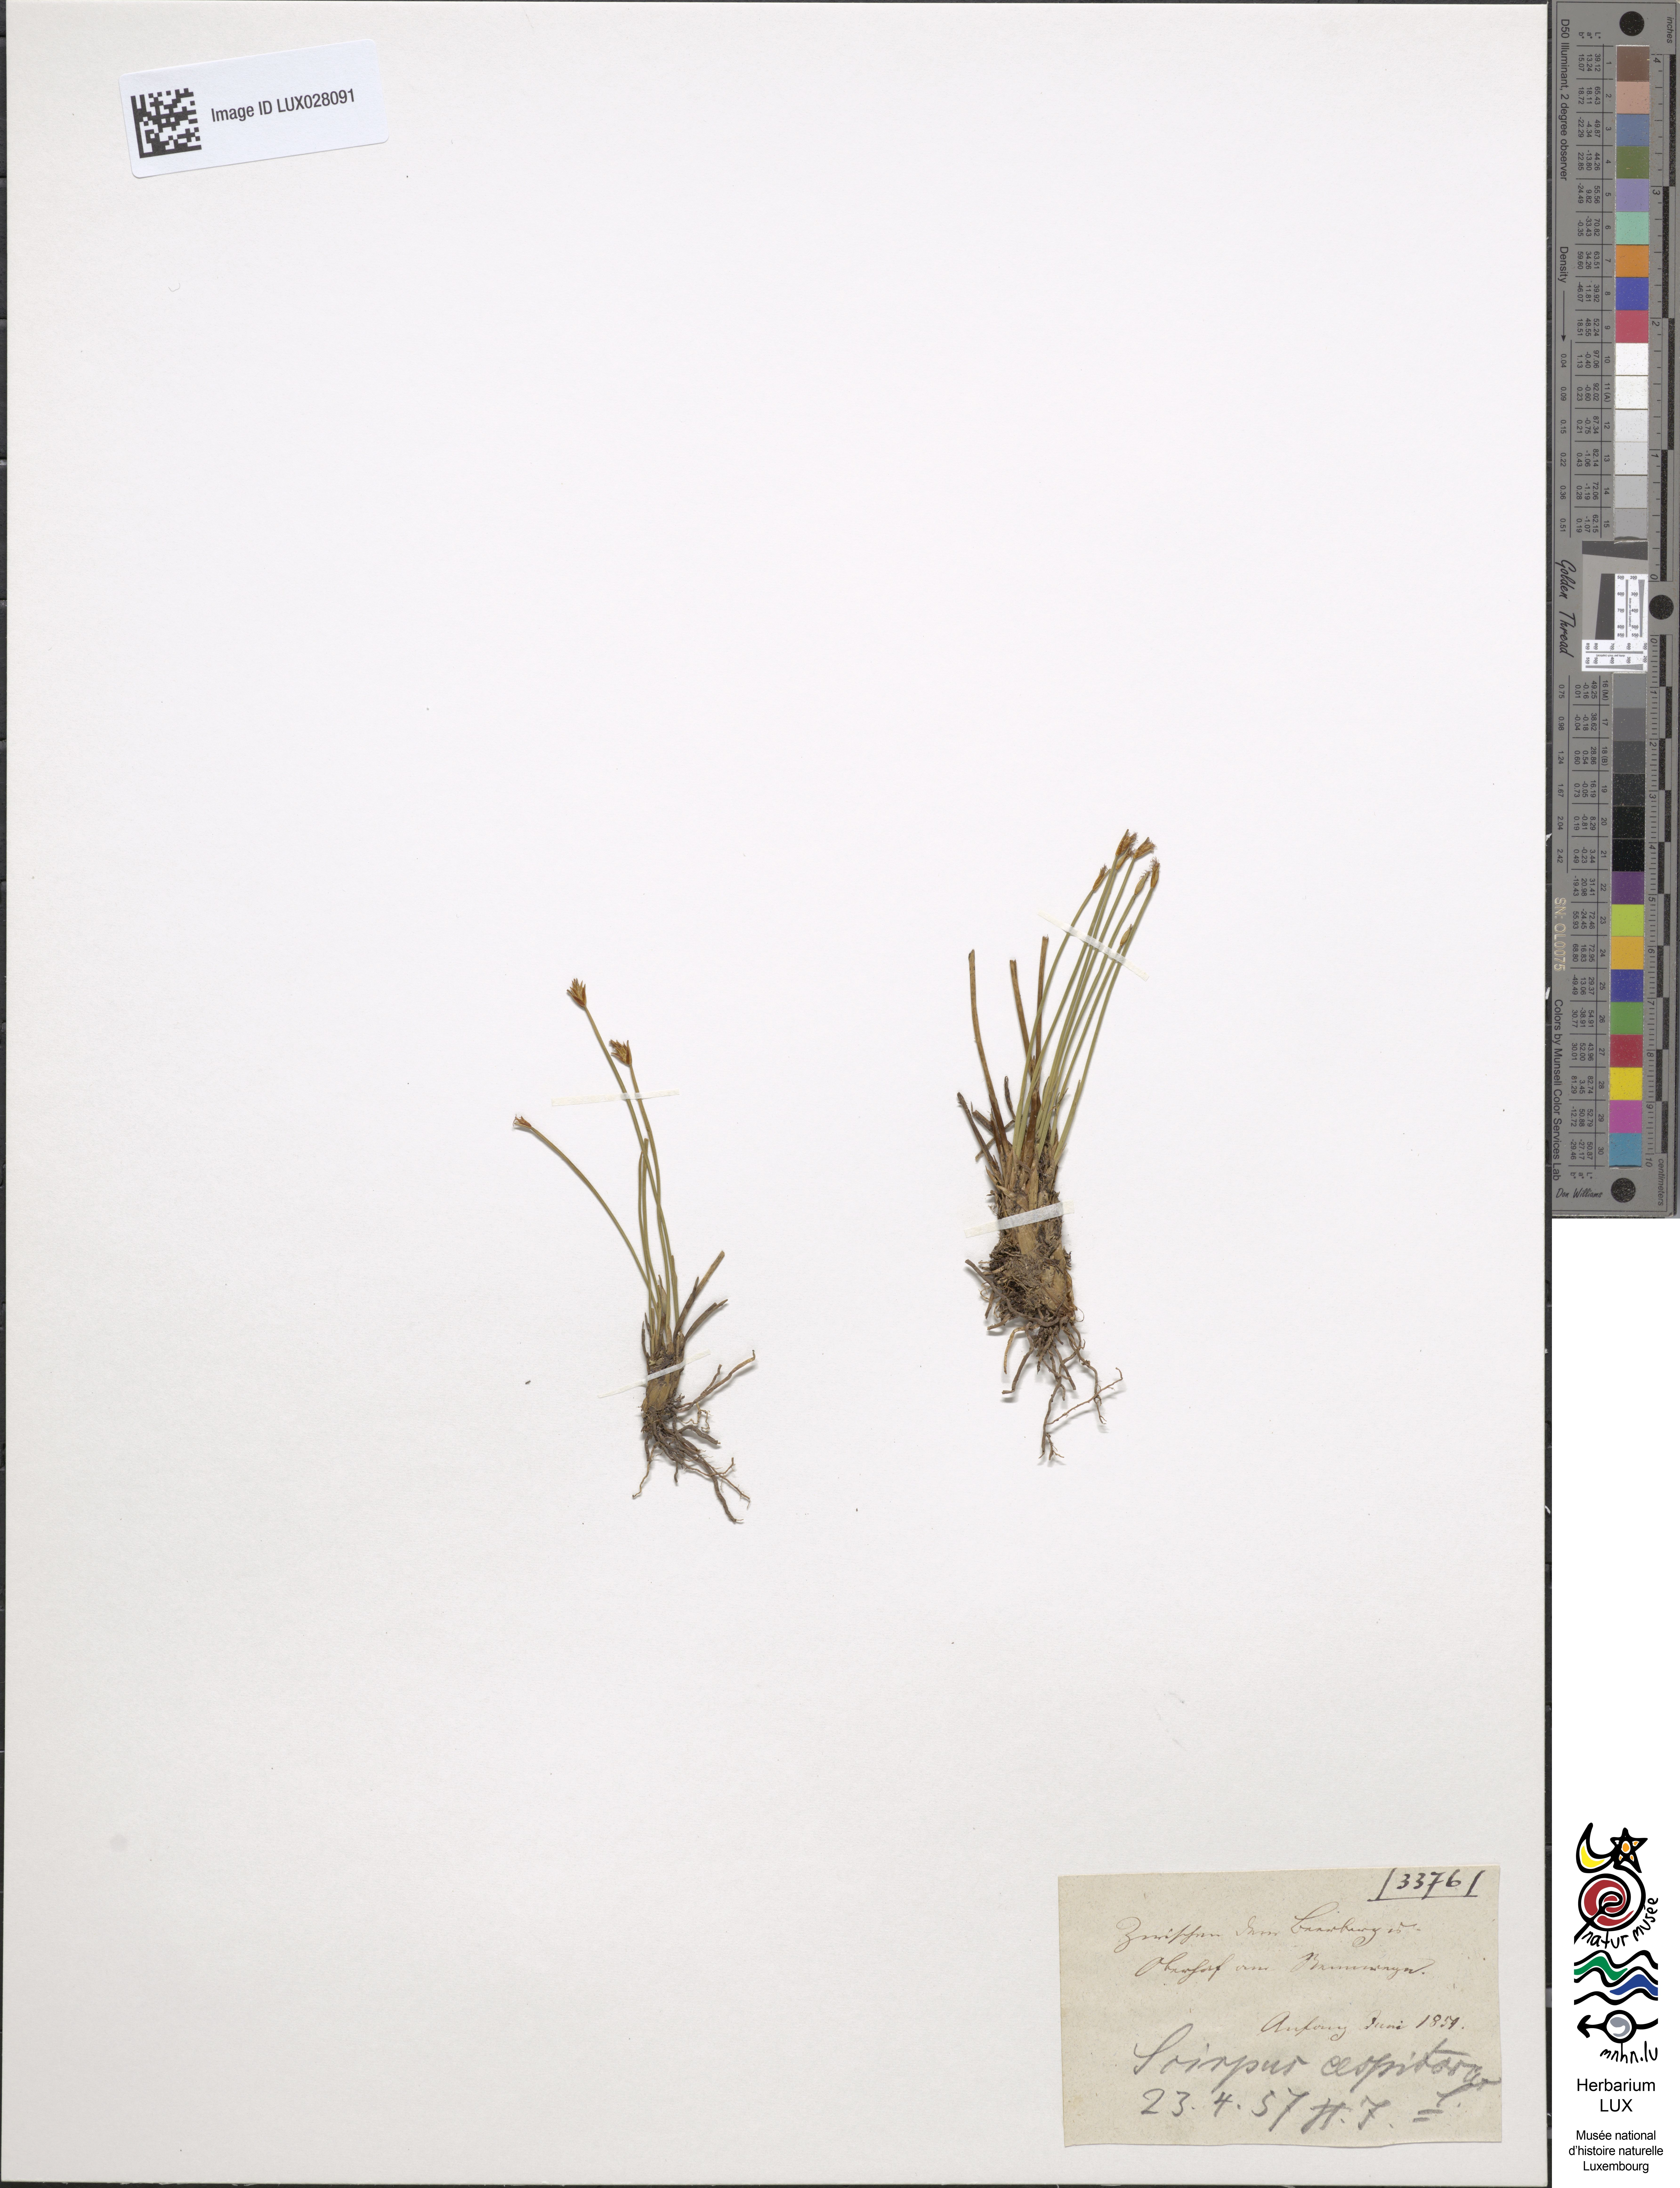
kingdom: Plantae
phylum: Tracheophyta
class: Liliopsida
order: Poales
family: Cyperaceae
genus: Trichophorum
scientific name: Trichophorum cespitosum
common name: Cespitose bulrush
